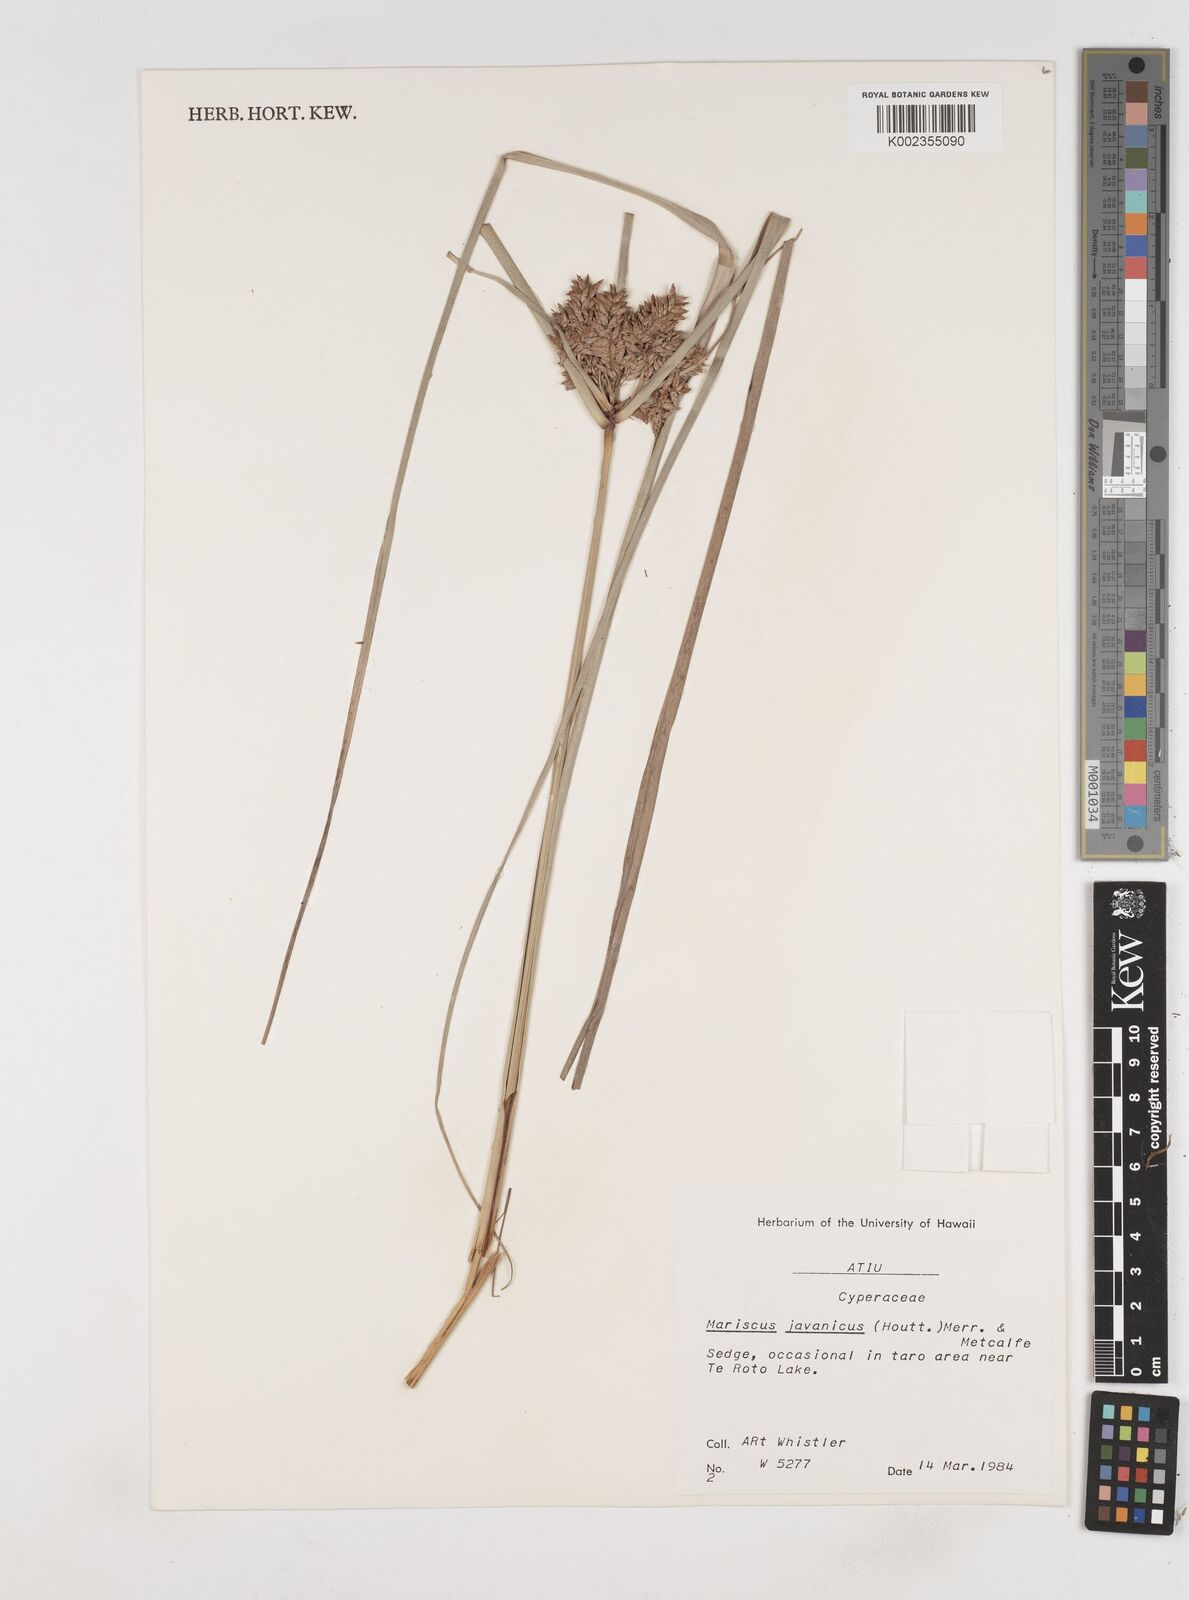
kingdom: Plantae
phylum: Tracheophyta
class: Liliopsida
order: Poales
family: Cyperaceae
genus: Cyperus
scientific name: Cyperus javanicus
